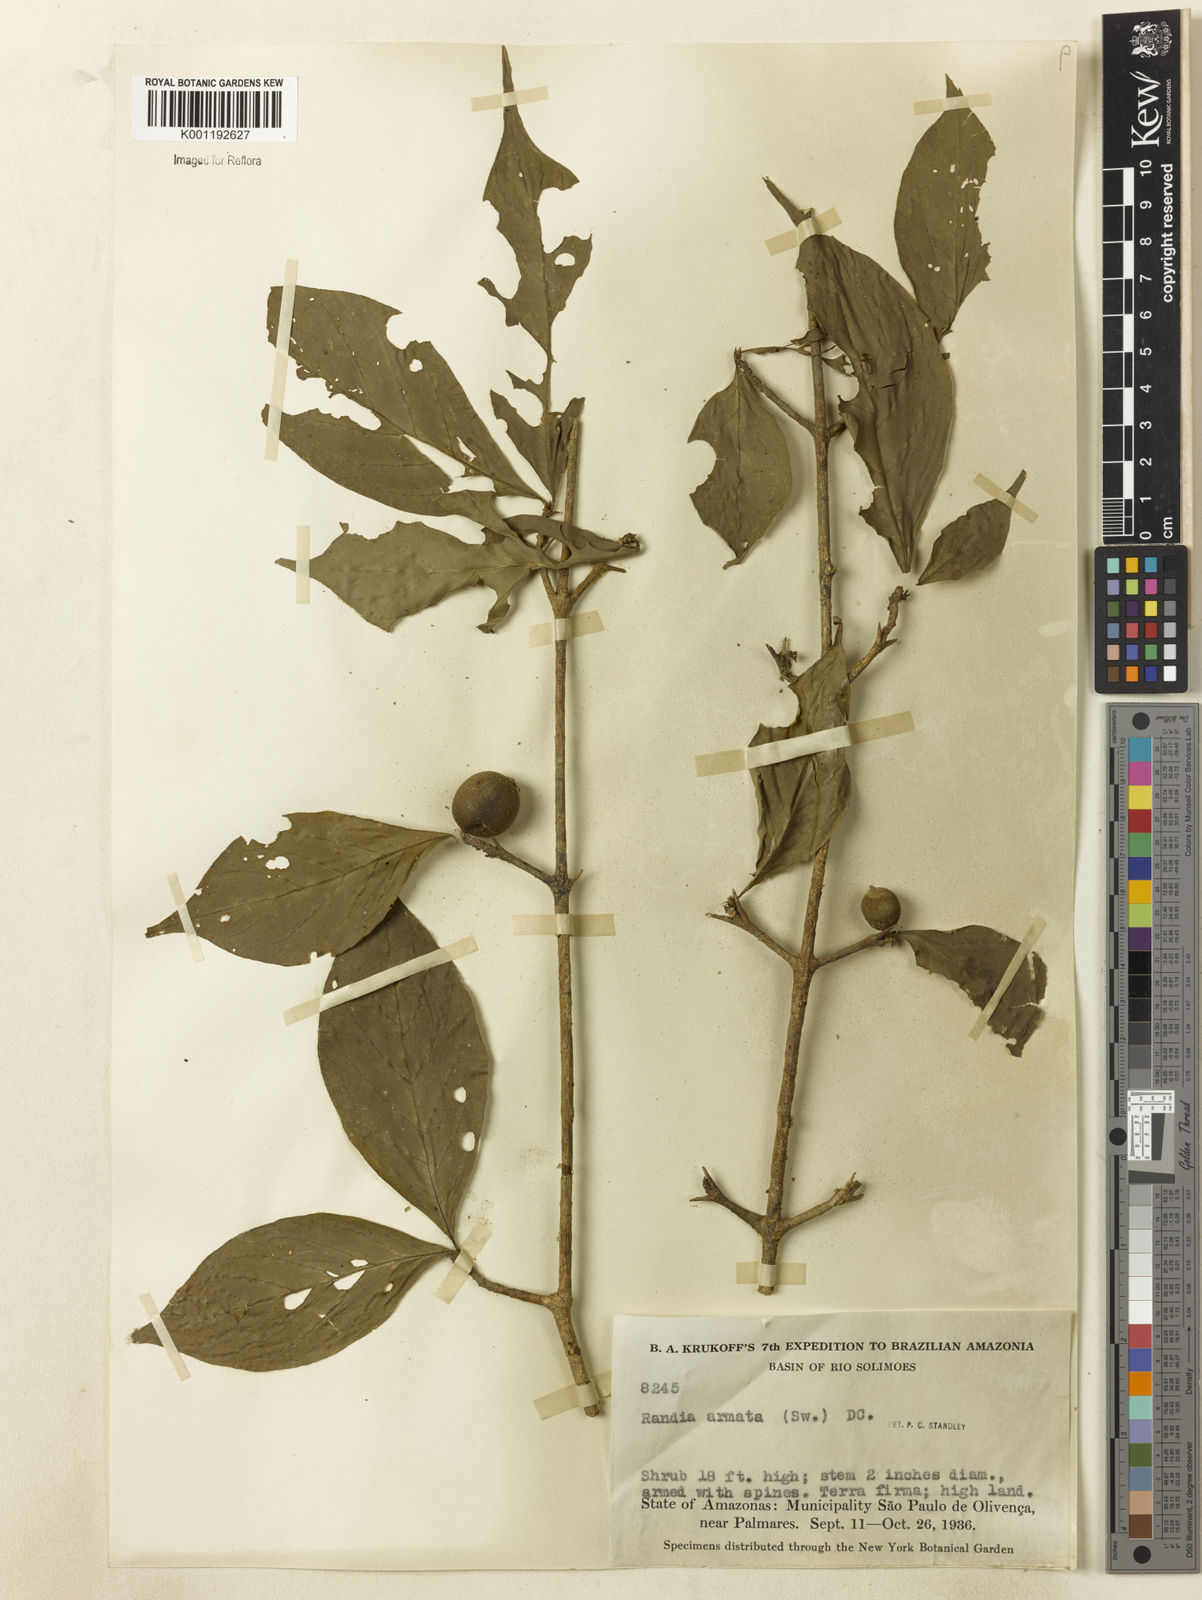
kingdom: Plantae
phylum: Tracheophyta
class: Magnoliopsida
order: Gentianales
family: Rubiaceae
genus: Randia
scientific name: Randia armata
